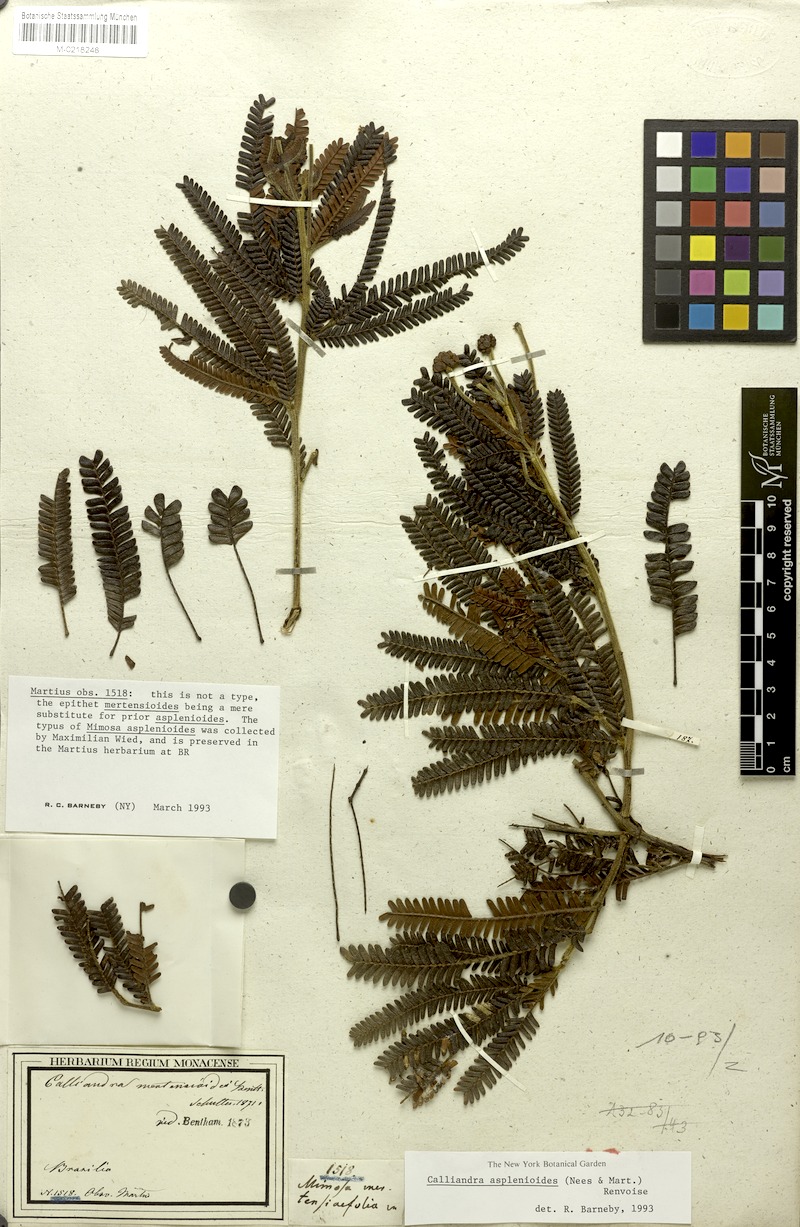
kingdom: Plantae
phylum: Tracheophyta
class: Magnoliopsida
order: Fabales
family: Fabaceae
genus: Calliandra
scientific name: Calliandra asplenioides
